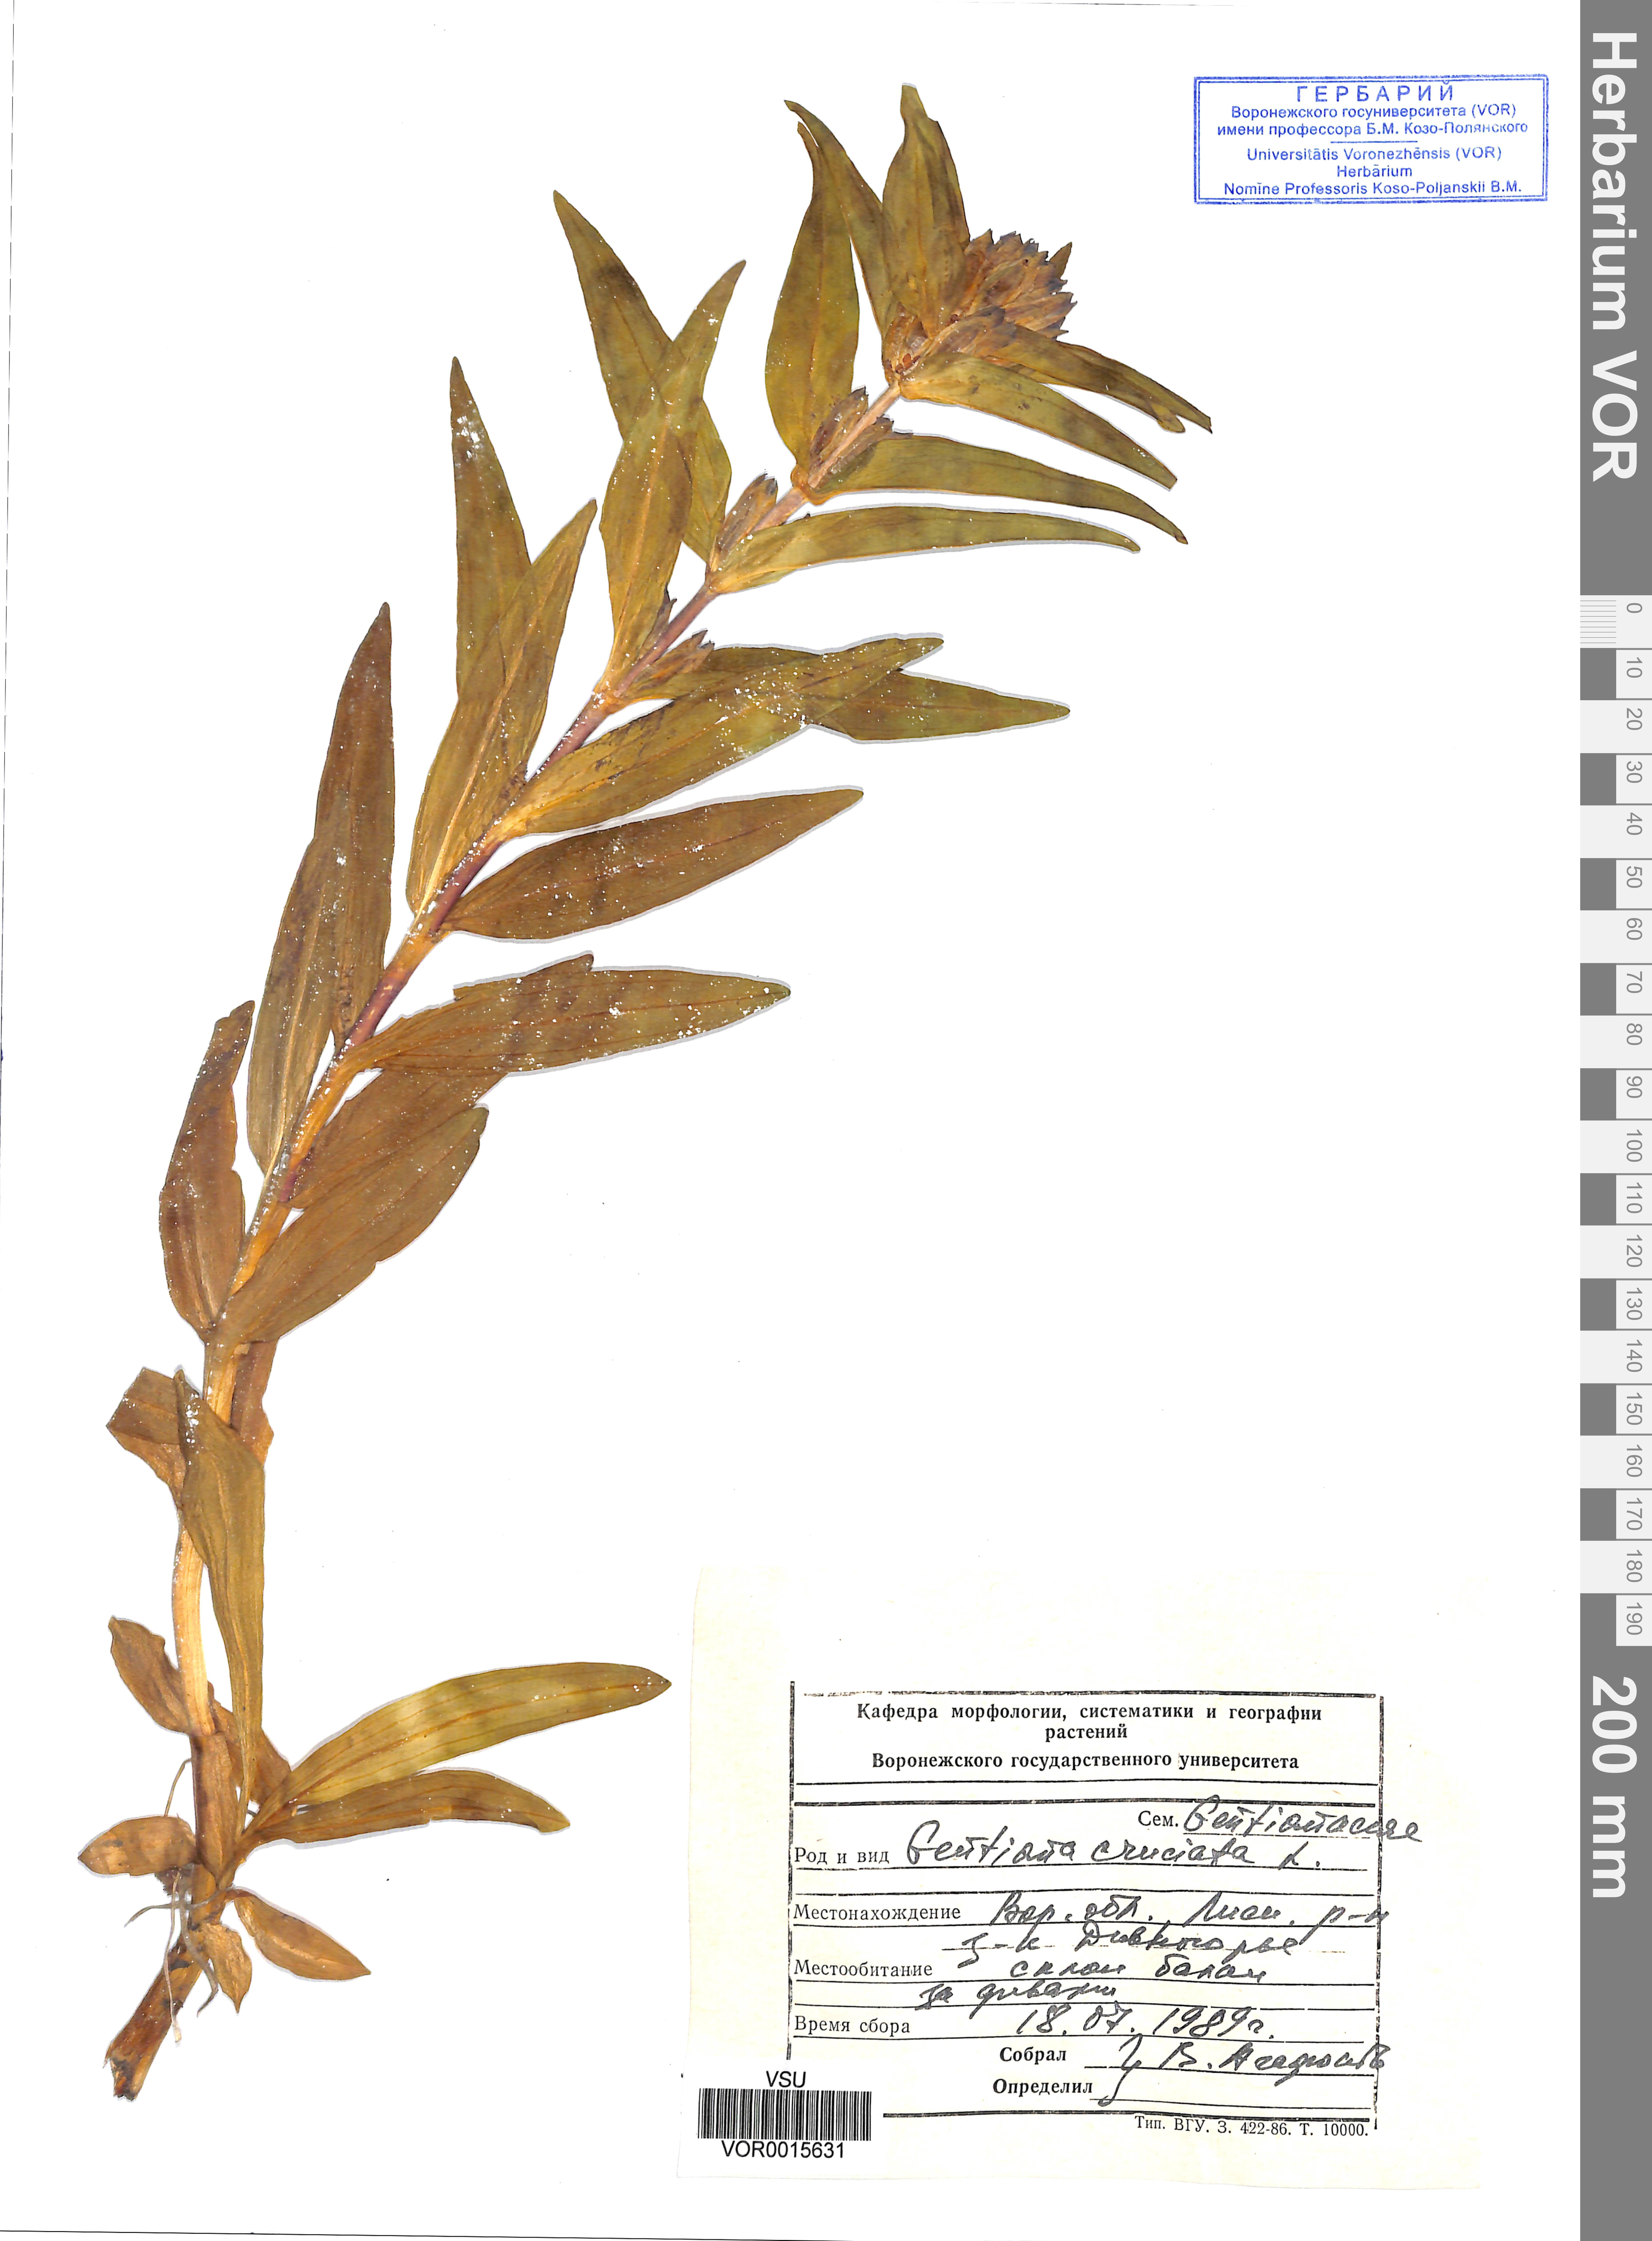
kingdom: Plantae
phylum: Tracheophyta
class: Magnoliopsida
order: Gentianales
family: Gentianaceae
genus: Gentiana
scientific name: Gentiana cruciata
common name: Cross gentian
